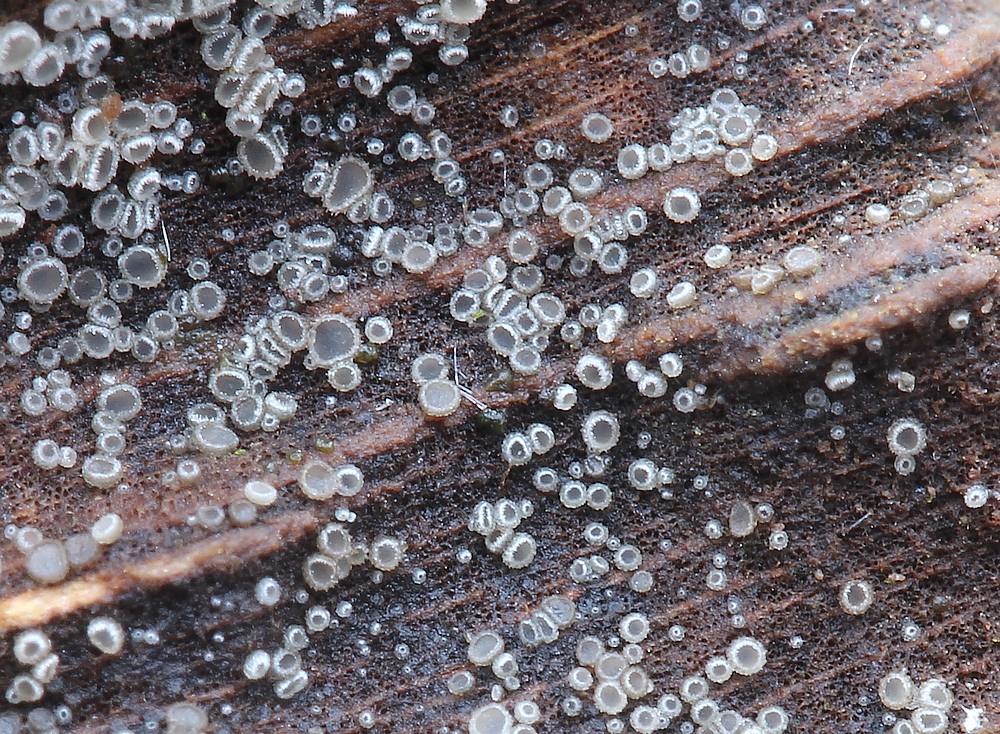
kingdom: Fungi
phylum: Ascomycota
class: Leotiomycetes
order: Helotiales
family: Hyaloscyphaceae
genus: Protounguicularia
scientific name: Protounguicularia transiens
